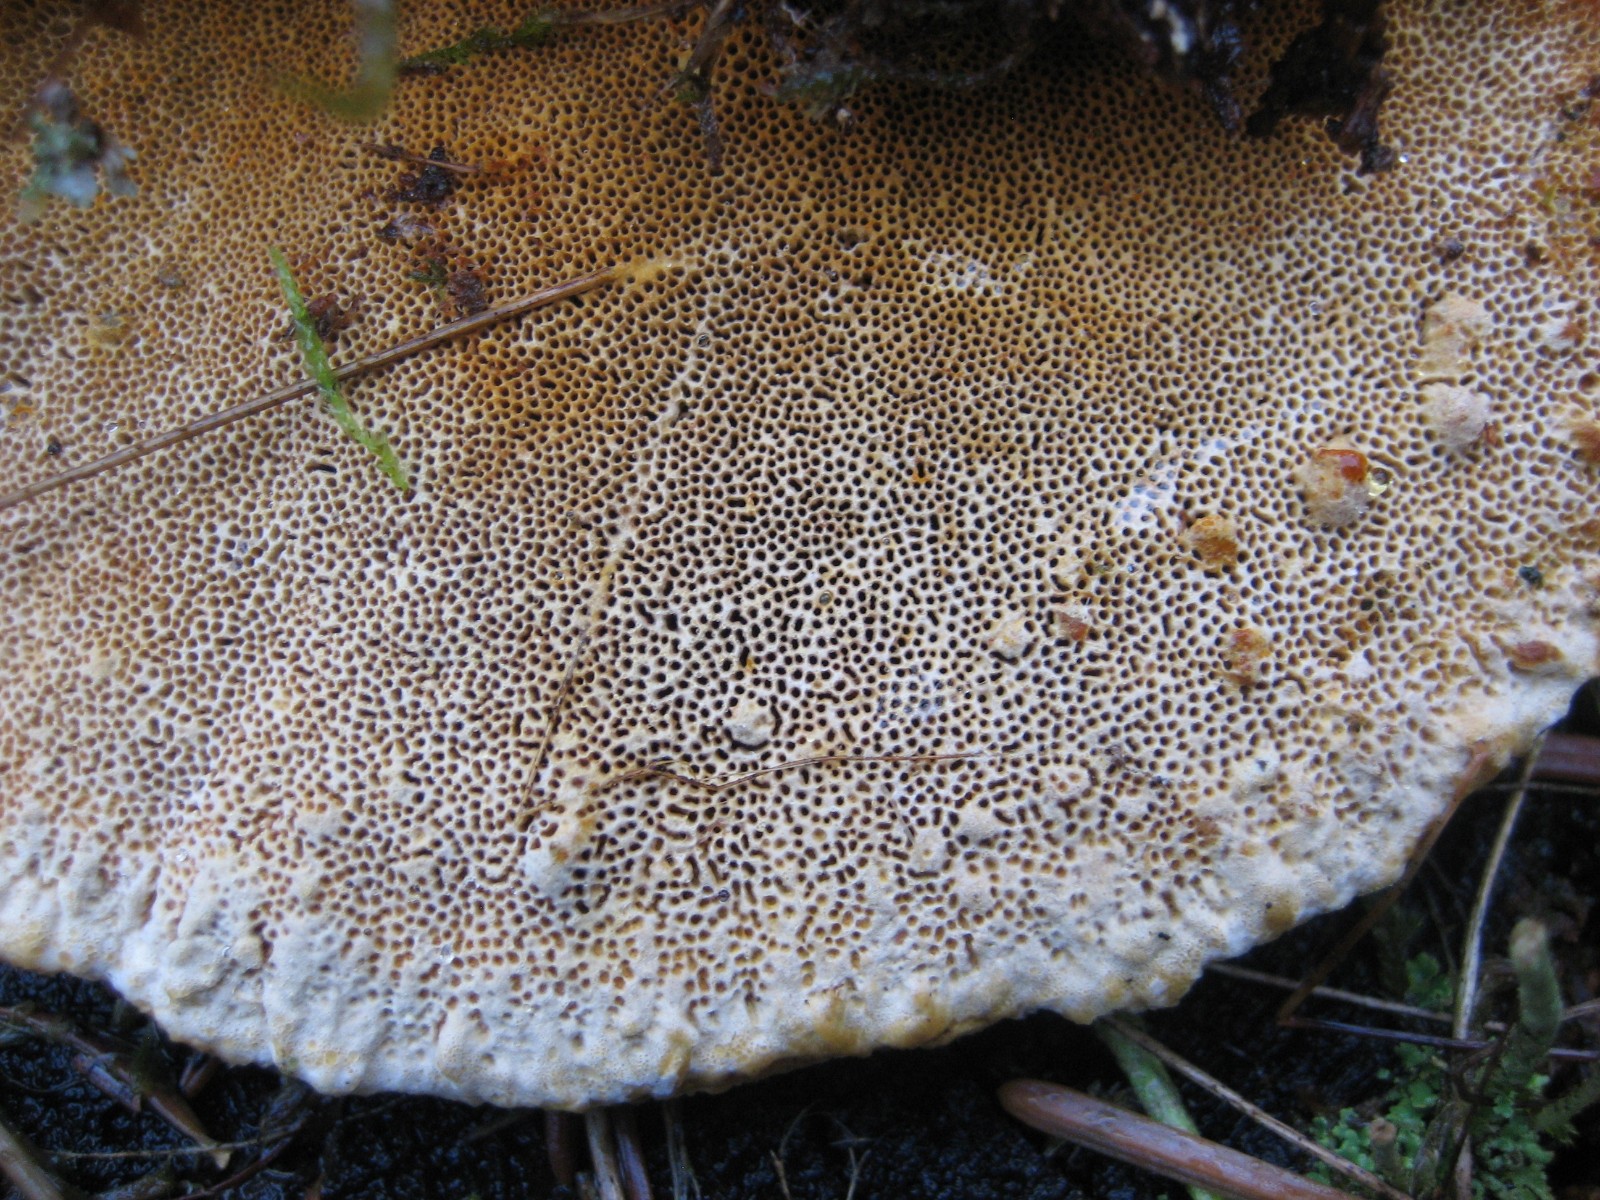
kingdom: Fungi
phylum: Basidiomycota
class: Agaricomycetes
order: Polyporales
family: Fomitopsidaceae
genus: Fomitopsis
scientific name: Fomitopsis pinicola
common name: randbæltet hovporesvamp
